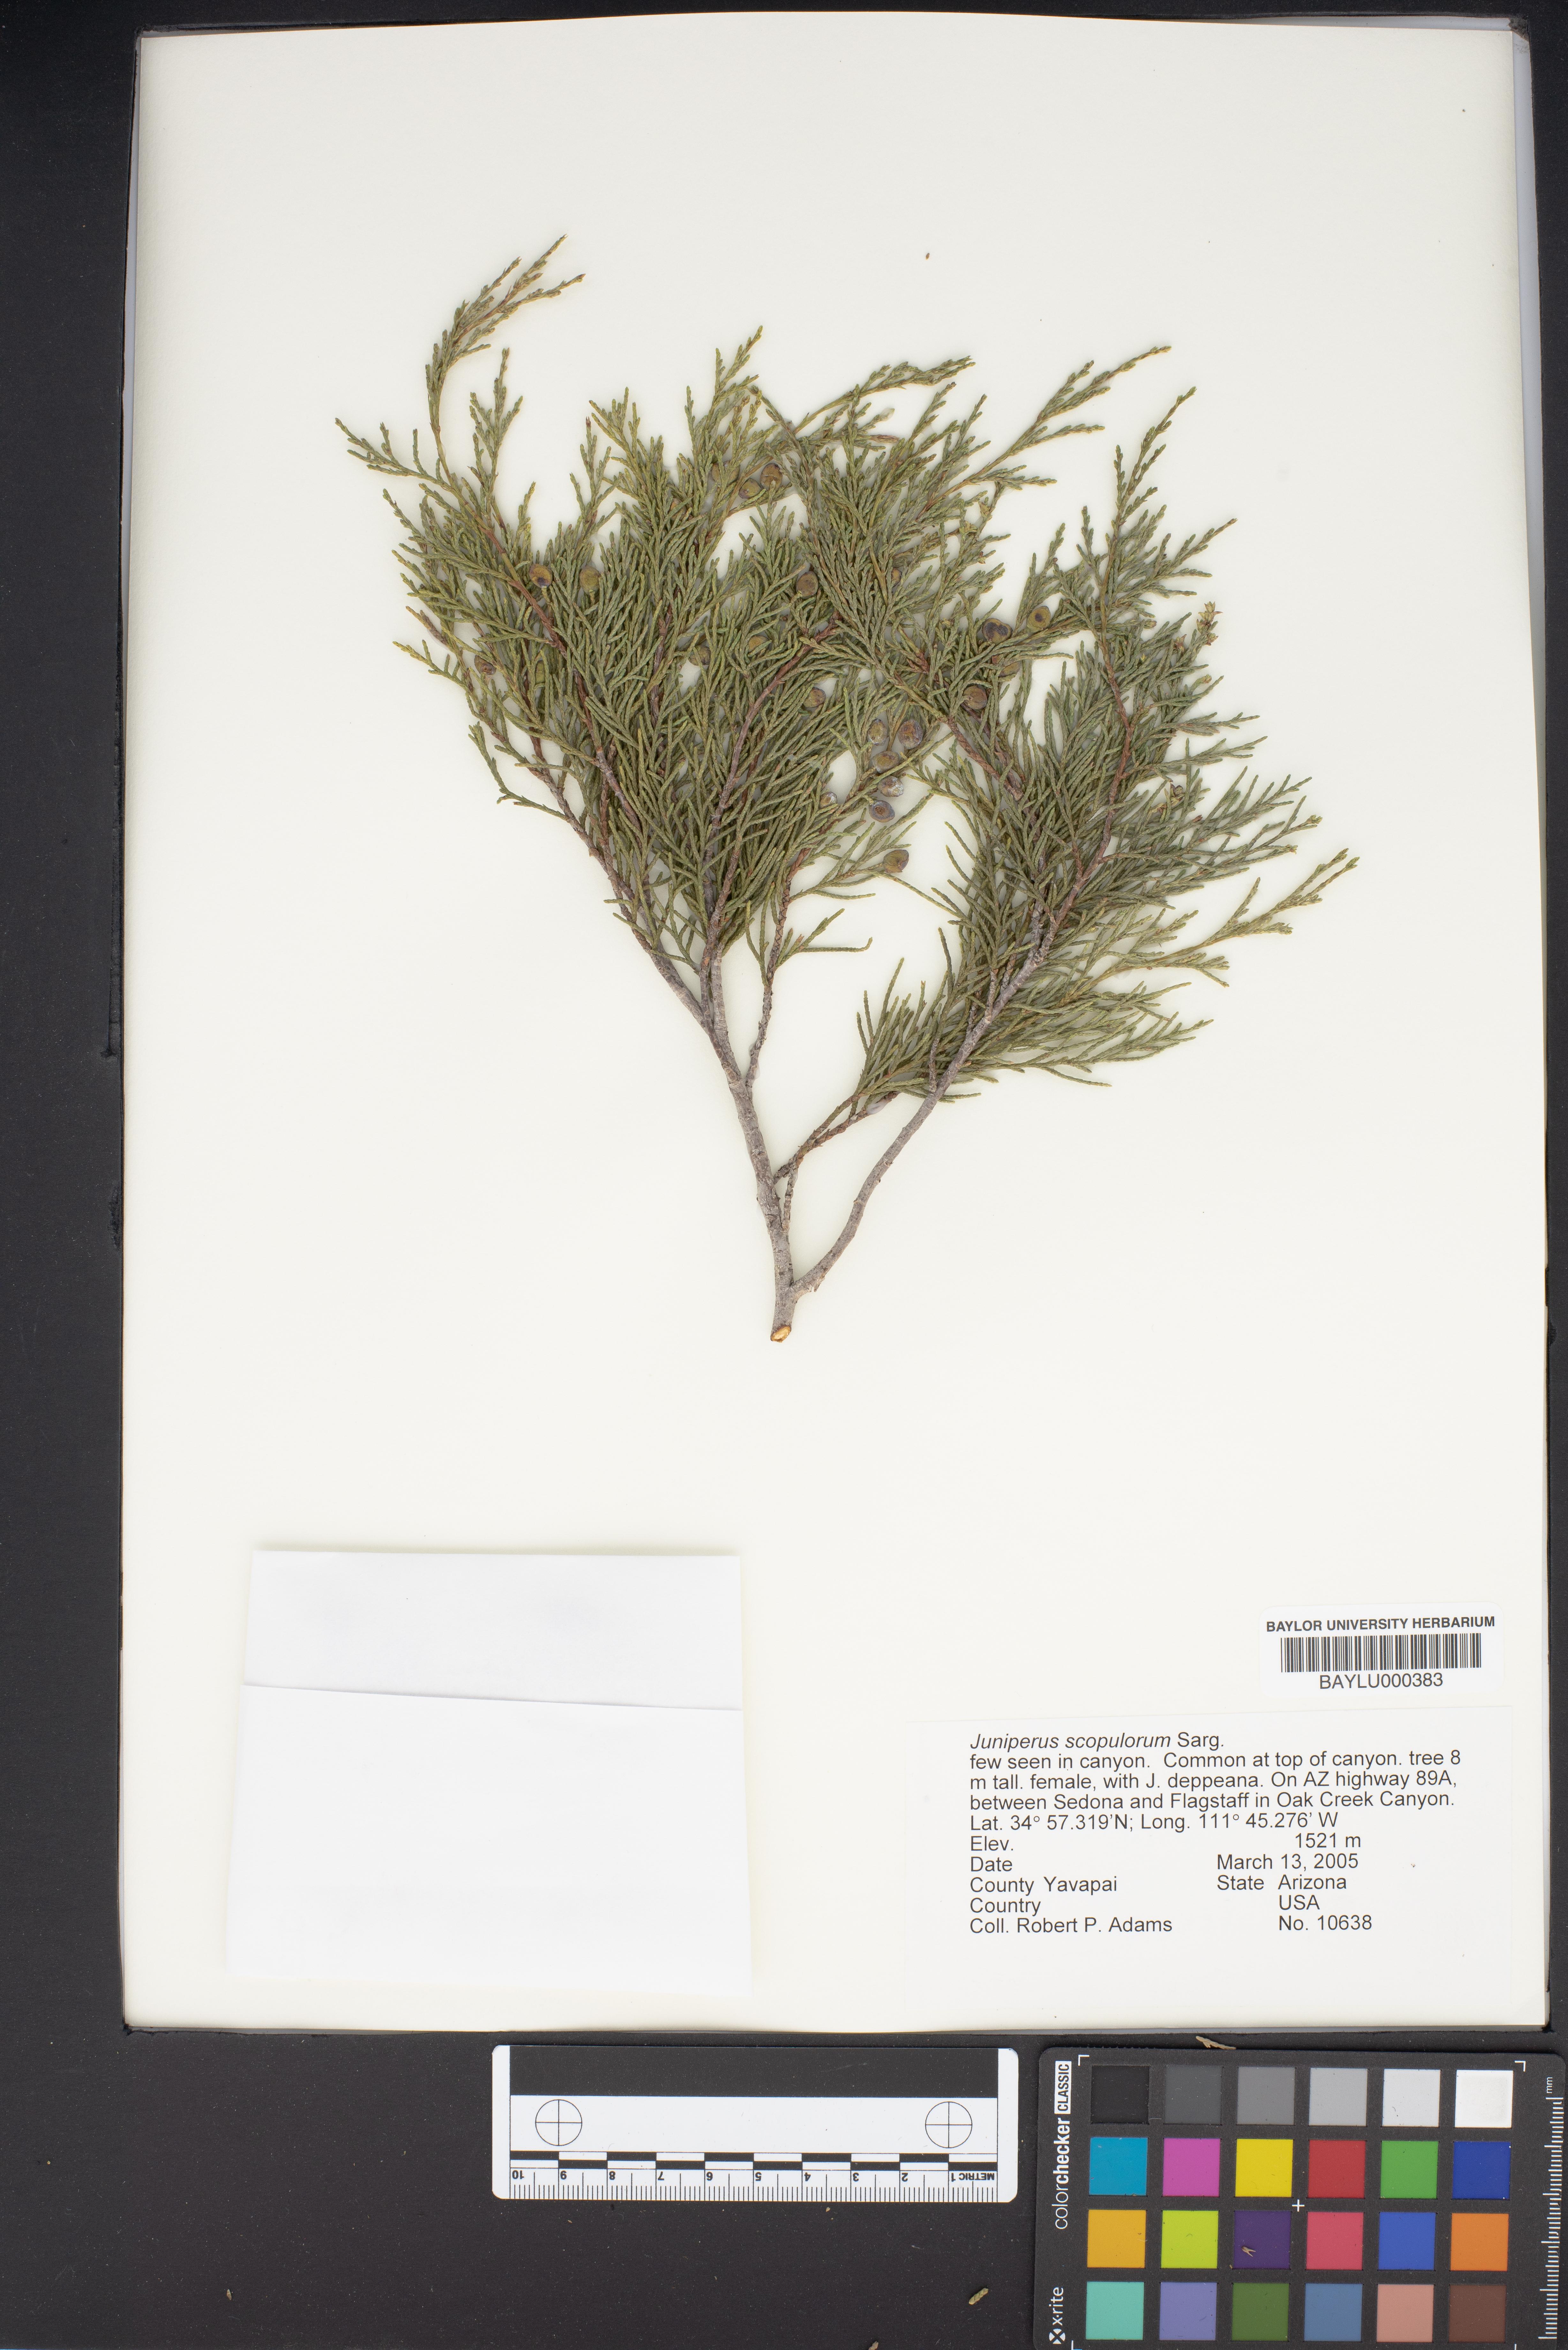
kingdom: Plantae
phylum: Tracheophyta
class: Pinopsida
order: Pinales
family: Cupressaceae
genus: Juniperus
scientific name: Juniperus scopulorum
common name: Rocky mountain juniper
